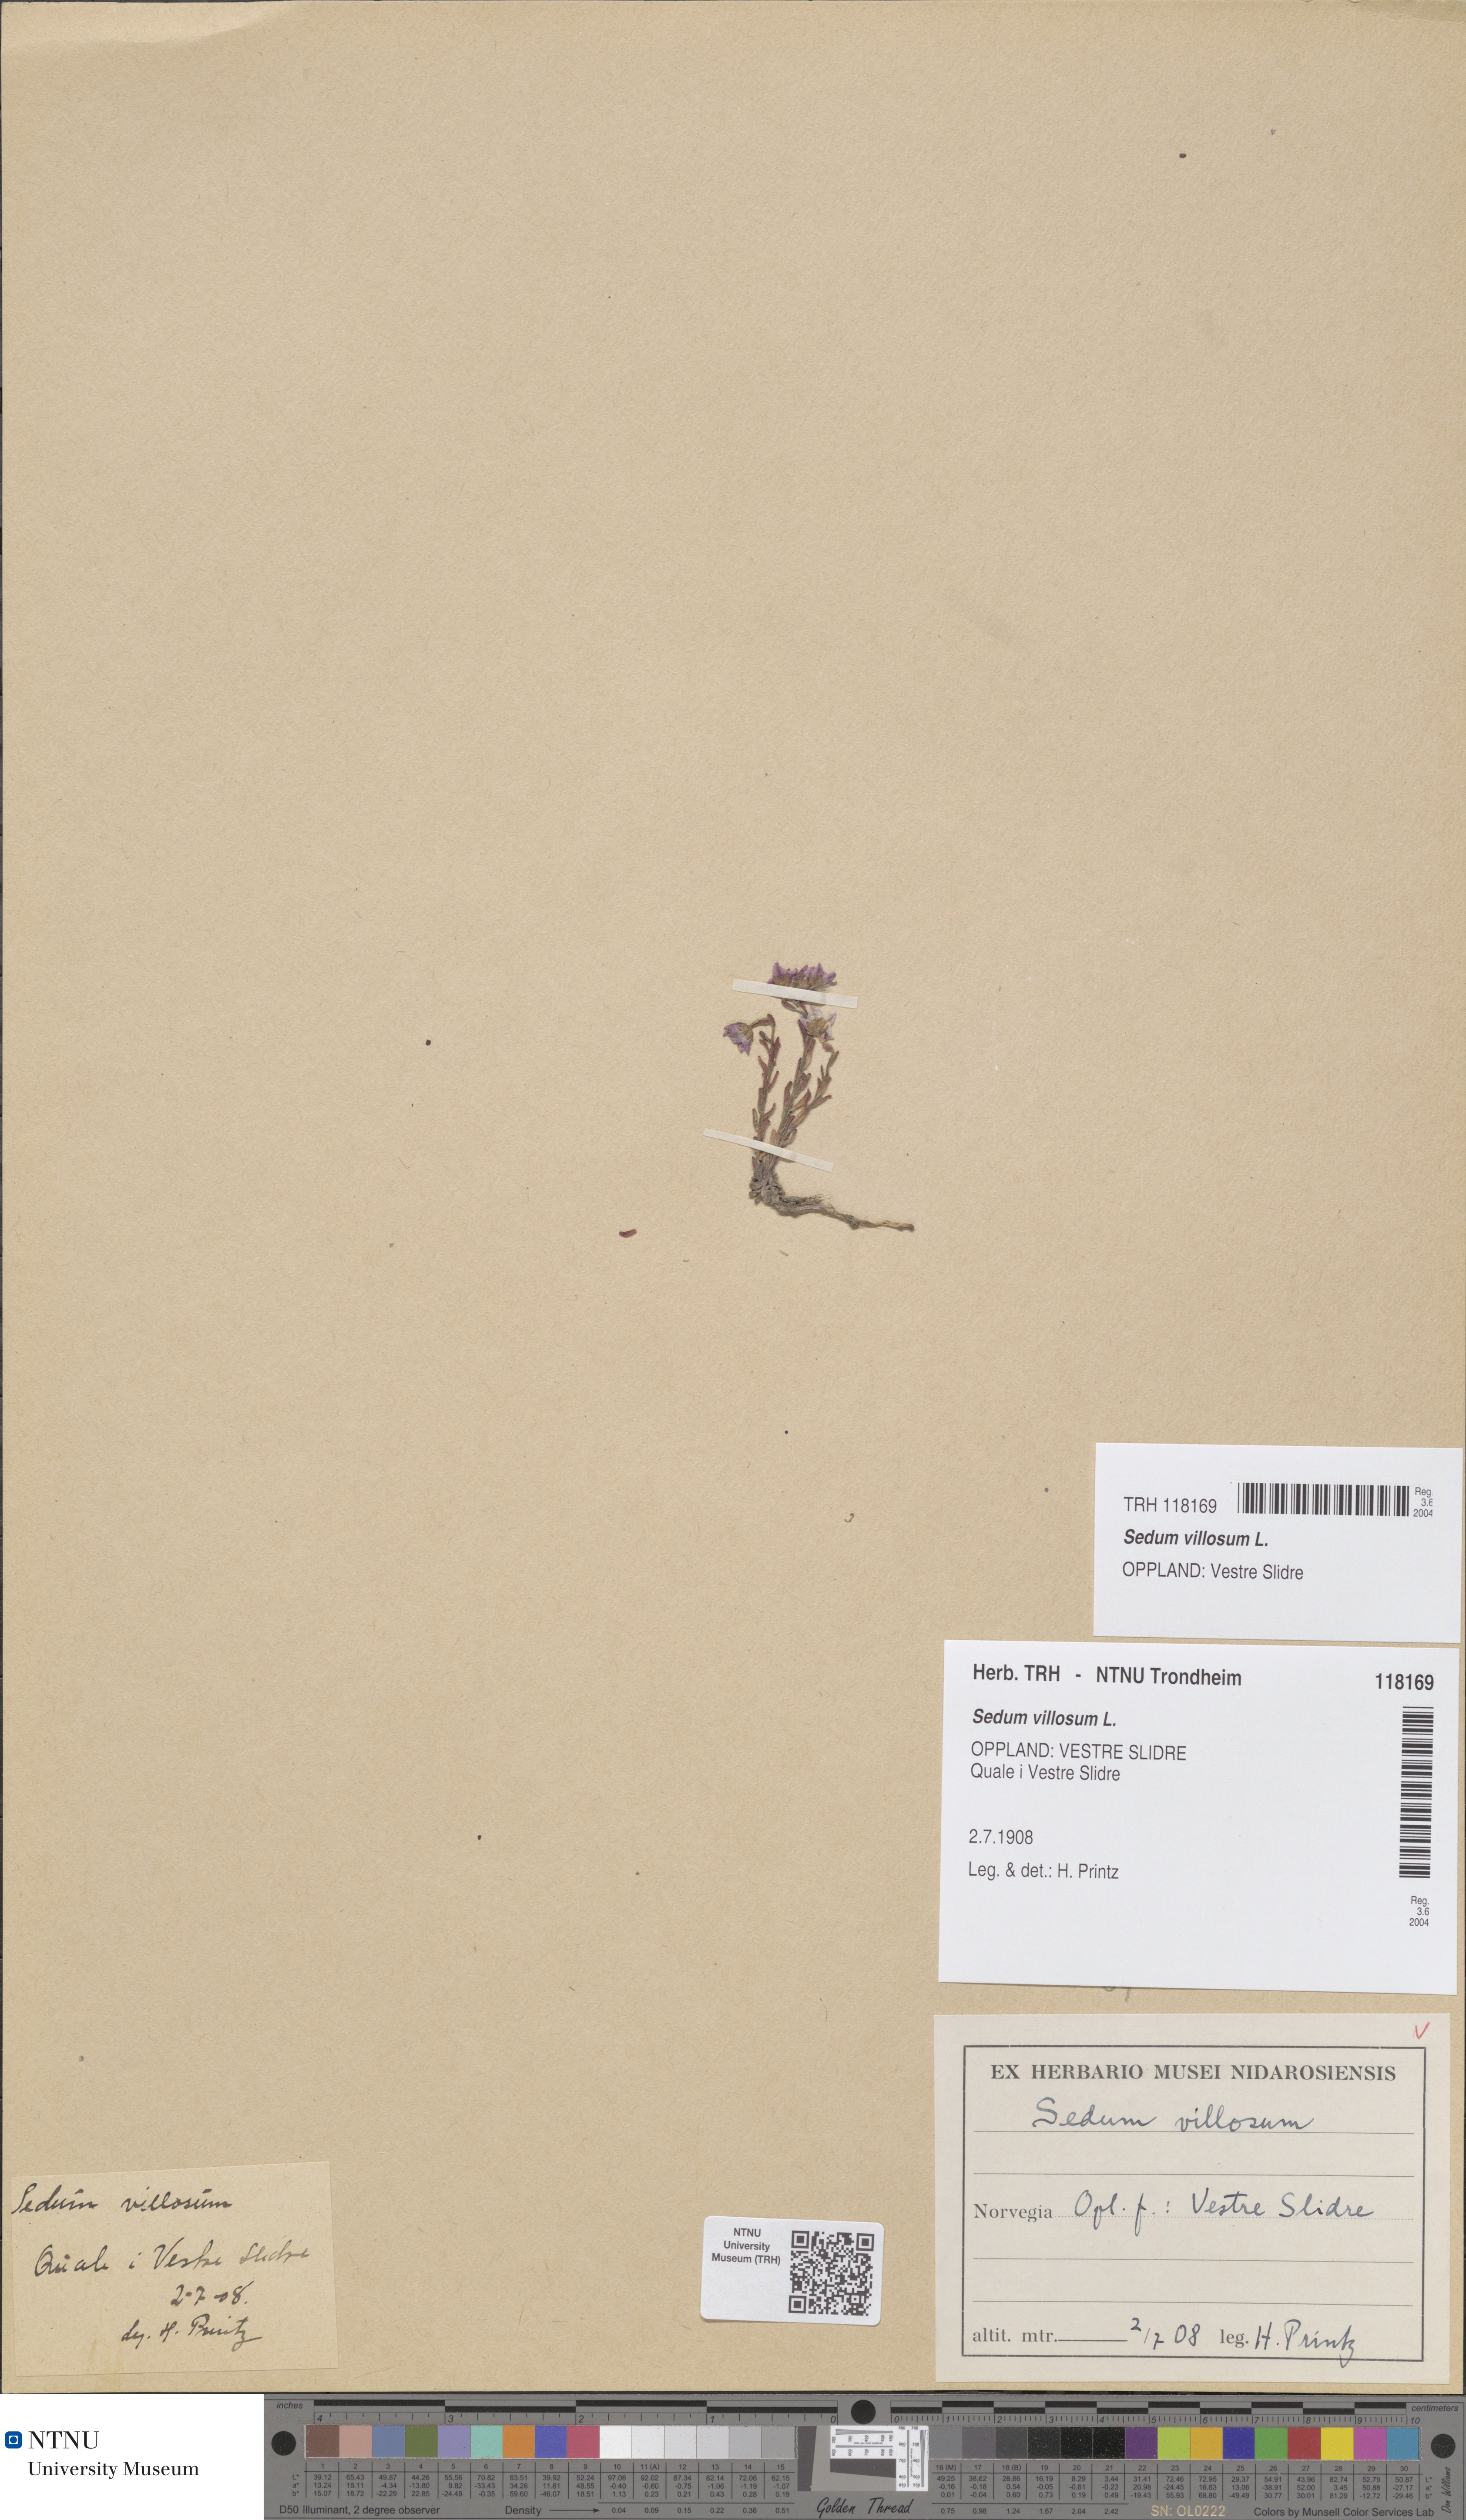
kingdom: Plantae
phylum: Tracheophyta
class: Magnoliopsida
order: Saxifragales
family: Crassulaceae
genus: Sedum
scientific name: Sedum villosum
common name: Hairy stonecrop
